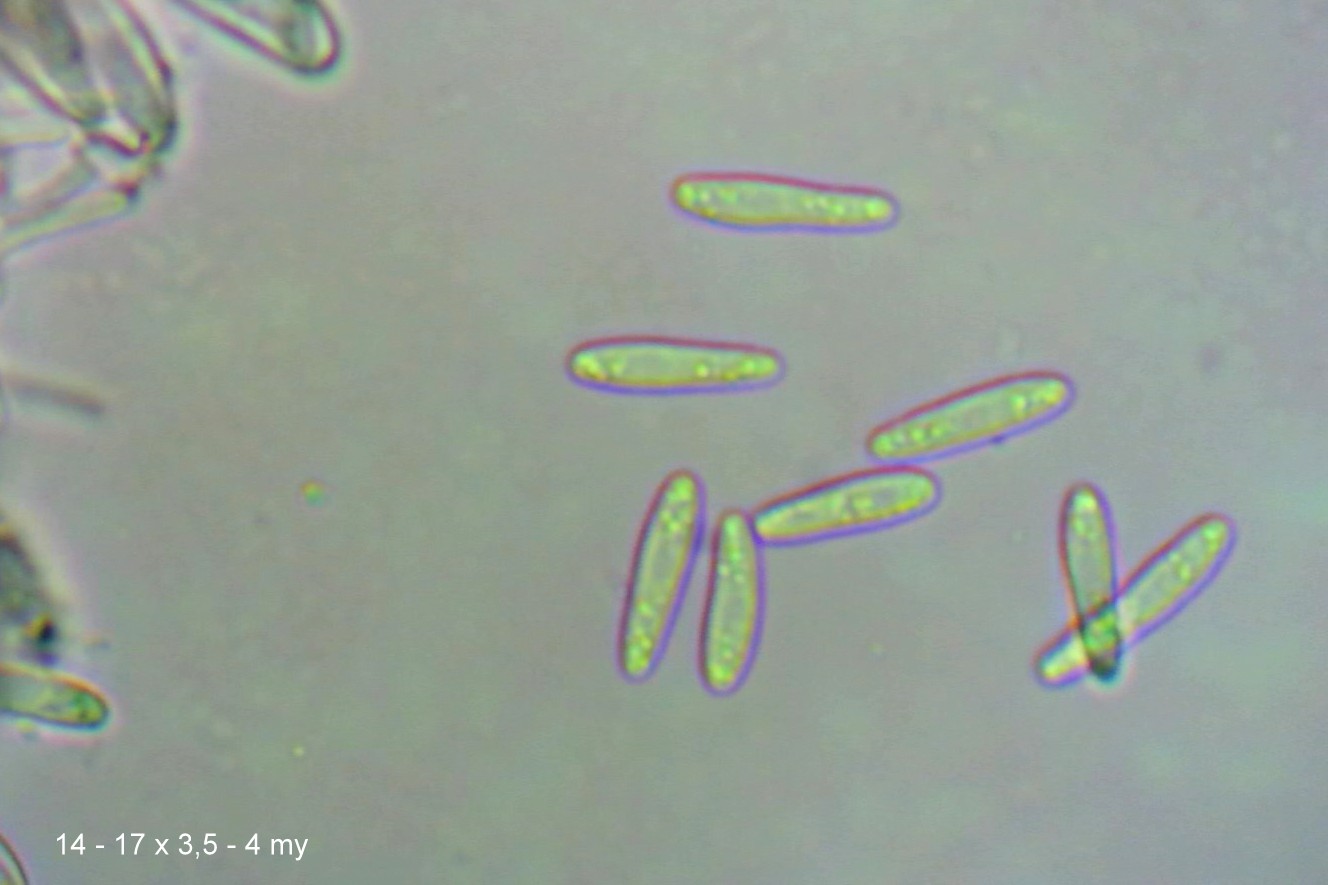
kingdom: Fungi
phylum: Ascomycota
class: Leotiomycetes
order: Helotiales
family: Hyaloscyphaceae
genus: Roseodiscus
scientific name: Roseodiscus formosus
